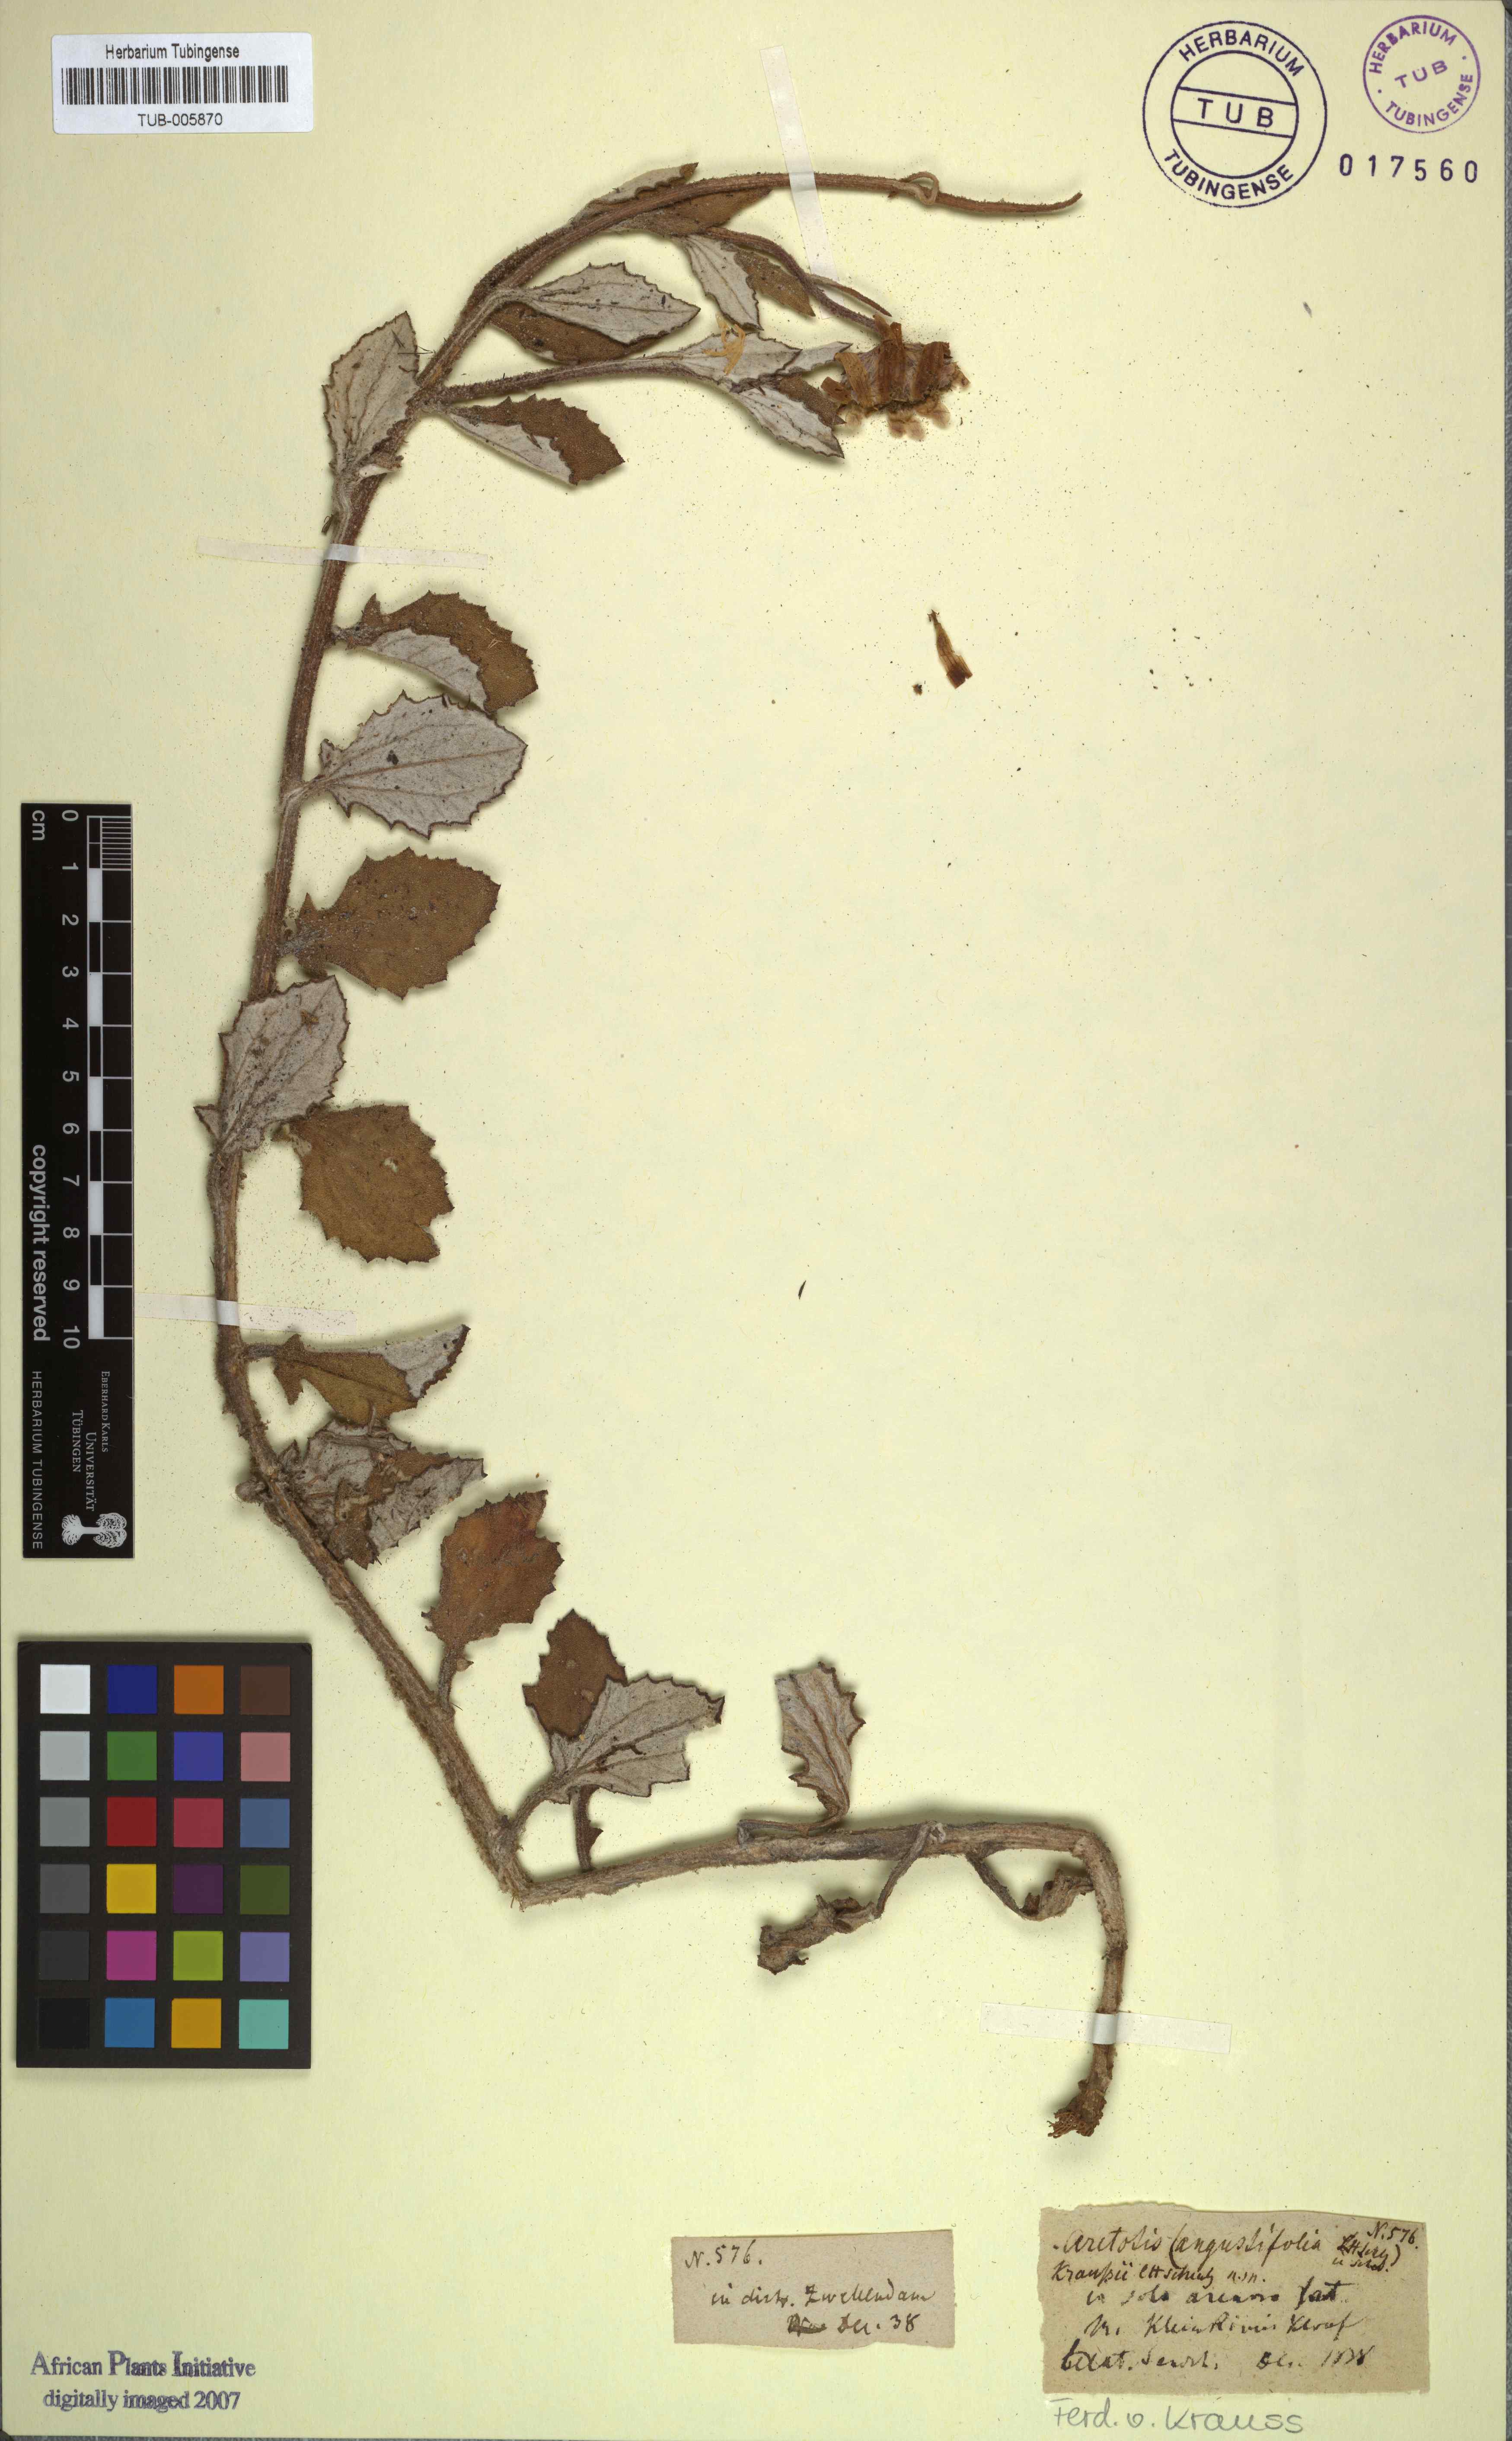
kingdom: Plantae
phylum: Tracheophyta
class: Magnoliopsida
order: Asterales
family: Asteraceae
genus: Arctotis
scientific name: Arctotis angustifolia
